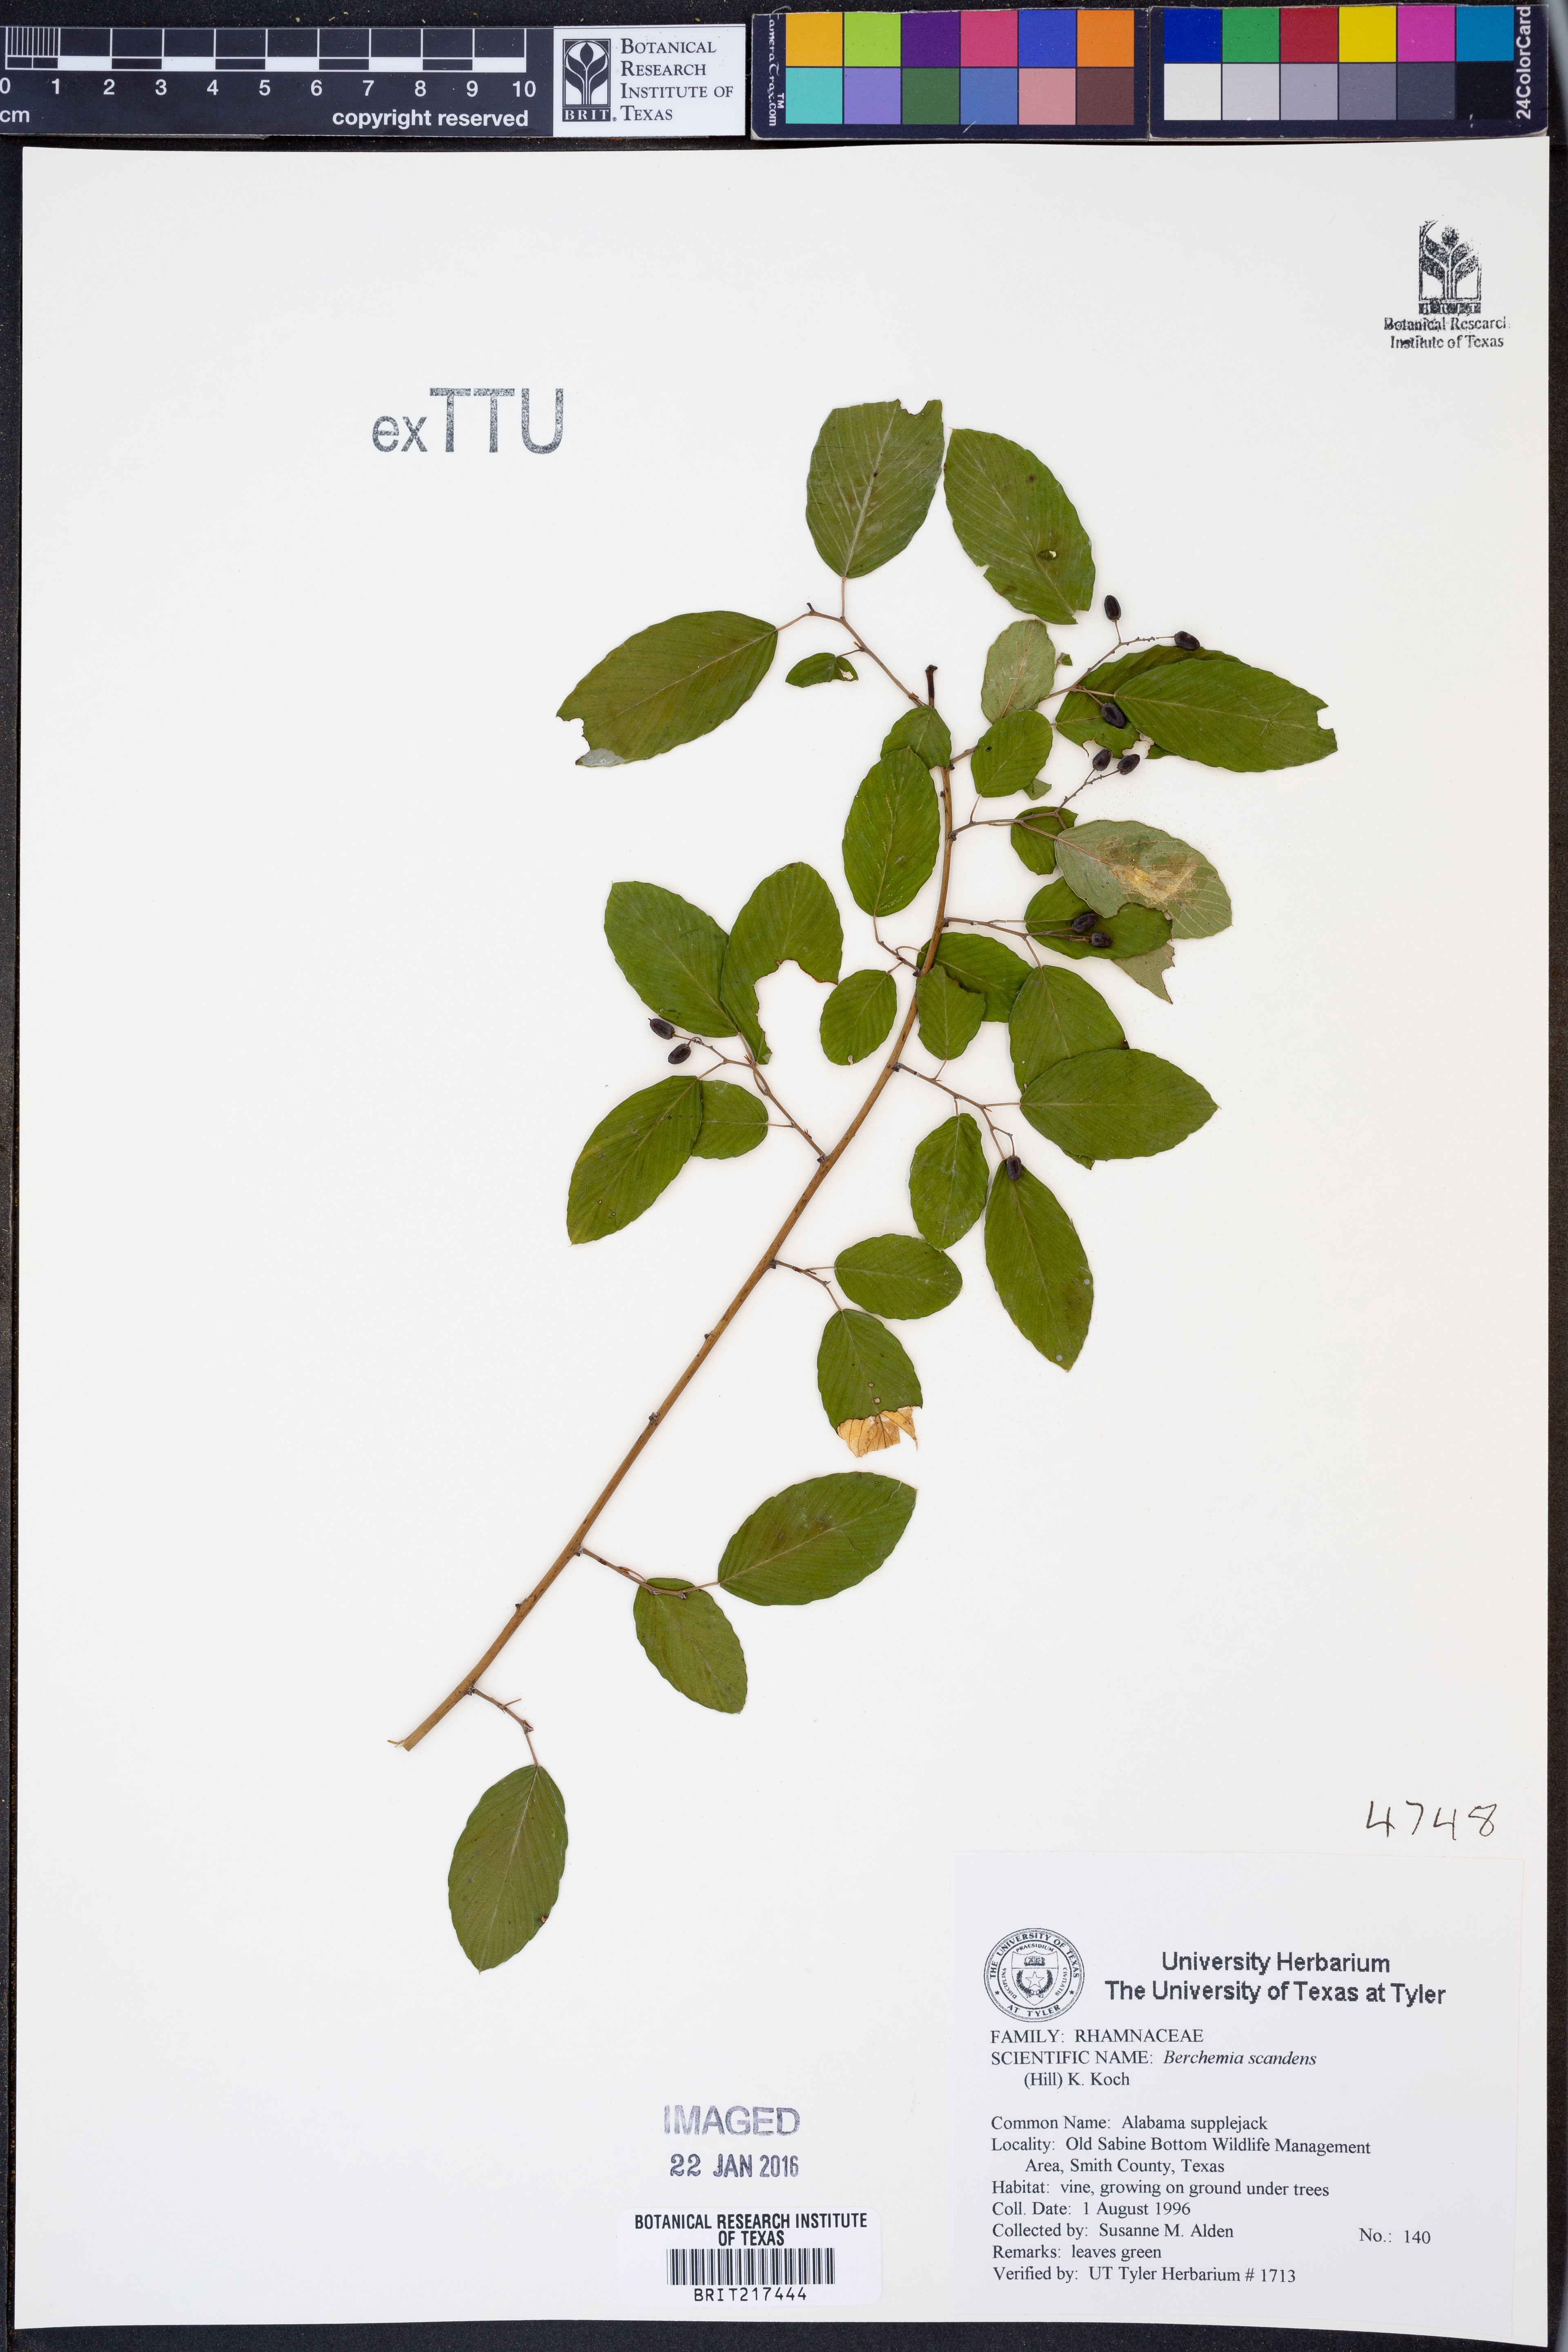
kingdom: Plantae
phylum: Tracheophyta
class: Magnoliopsida
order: Rosales
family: Rhamnaceae
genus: Berchemia
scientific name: Berchemia scandens
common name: Supplejack
